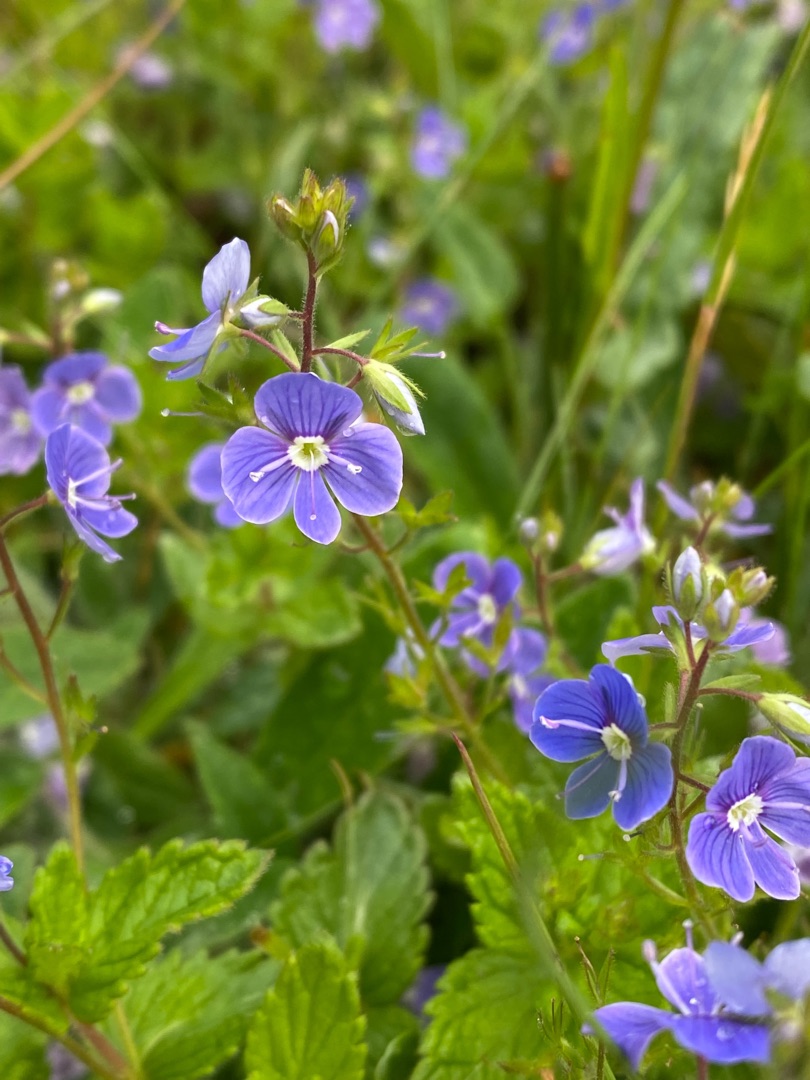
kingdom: Plantae
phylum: Tracheophyta
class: Magnoliopsida
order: Lamiales
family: Plantaginaceae
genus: Veronica
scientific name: Veronica chamaedrys
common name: Tveskægget ærenpris
